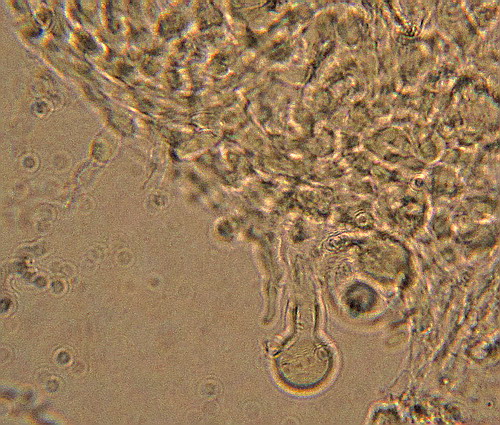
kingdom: Fungi
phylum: Basidiomycota
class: Agaricomycetes
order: Hymenochaetales
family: Rickenellaceae
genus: Resinicium
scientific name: Resinicium bicolor
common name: almindelig vokstand
